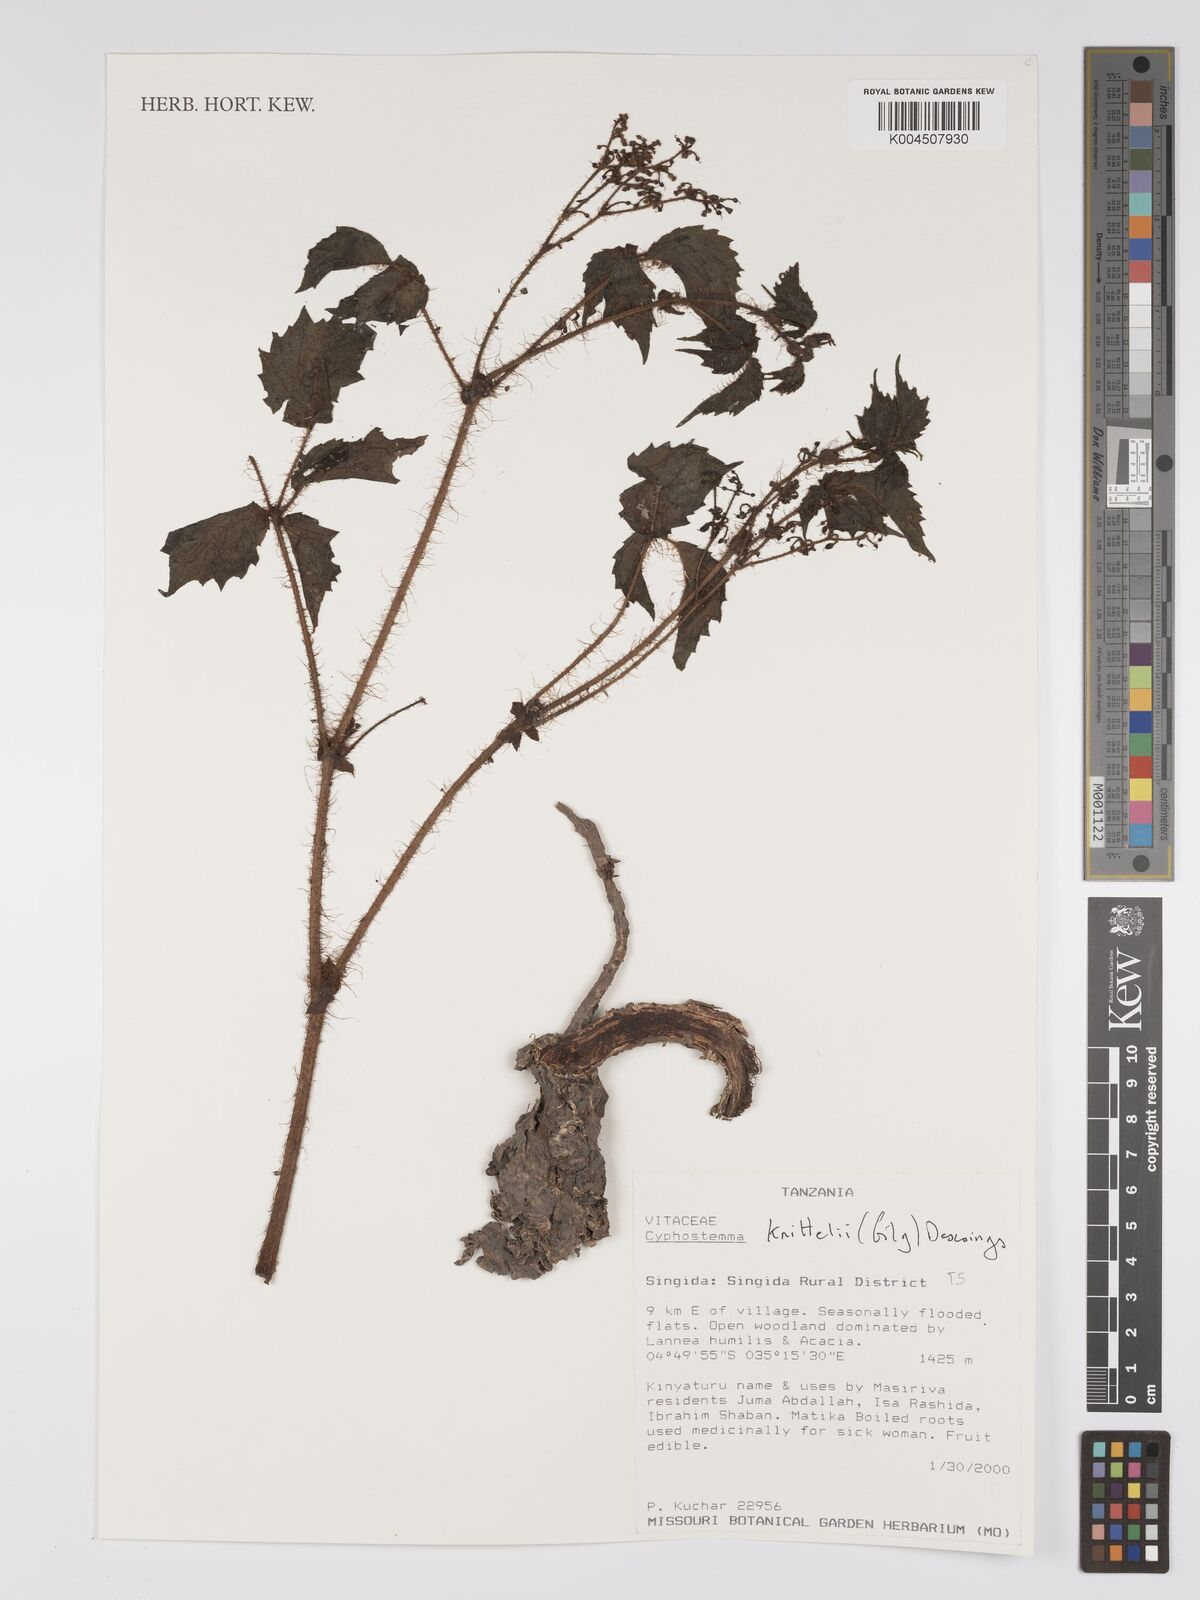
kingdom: Plantae
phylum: Tracheophyta
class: Magnoliopsida
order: Vitales
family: Vitaceae
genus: Cyphostemma
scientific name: Cyphostemma knittelii
